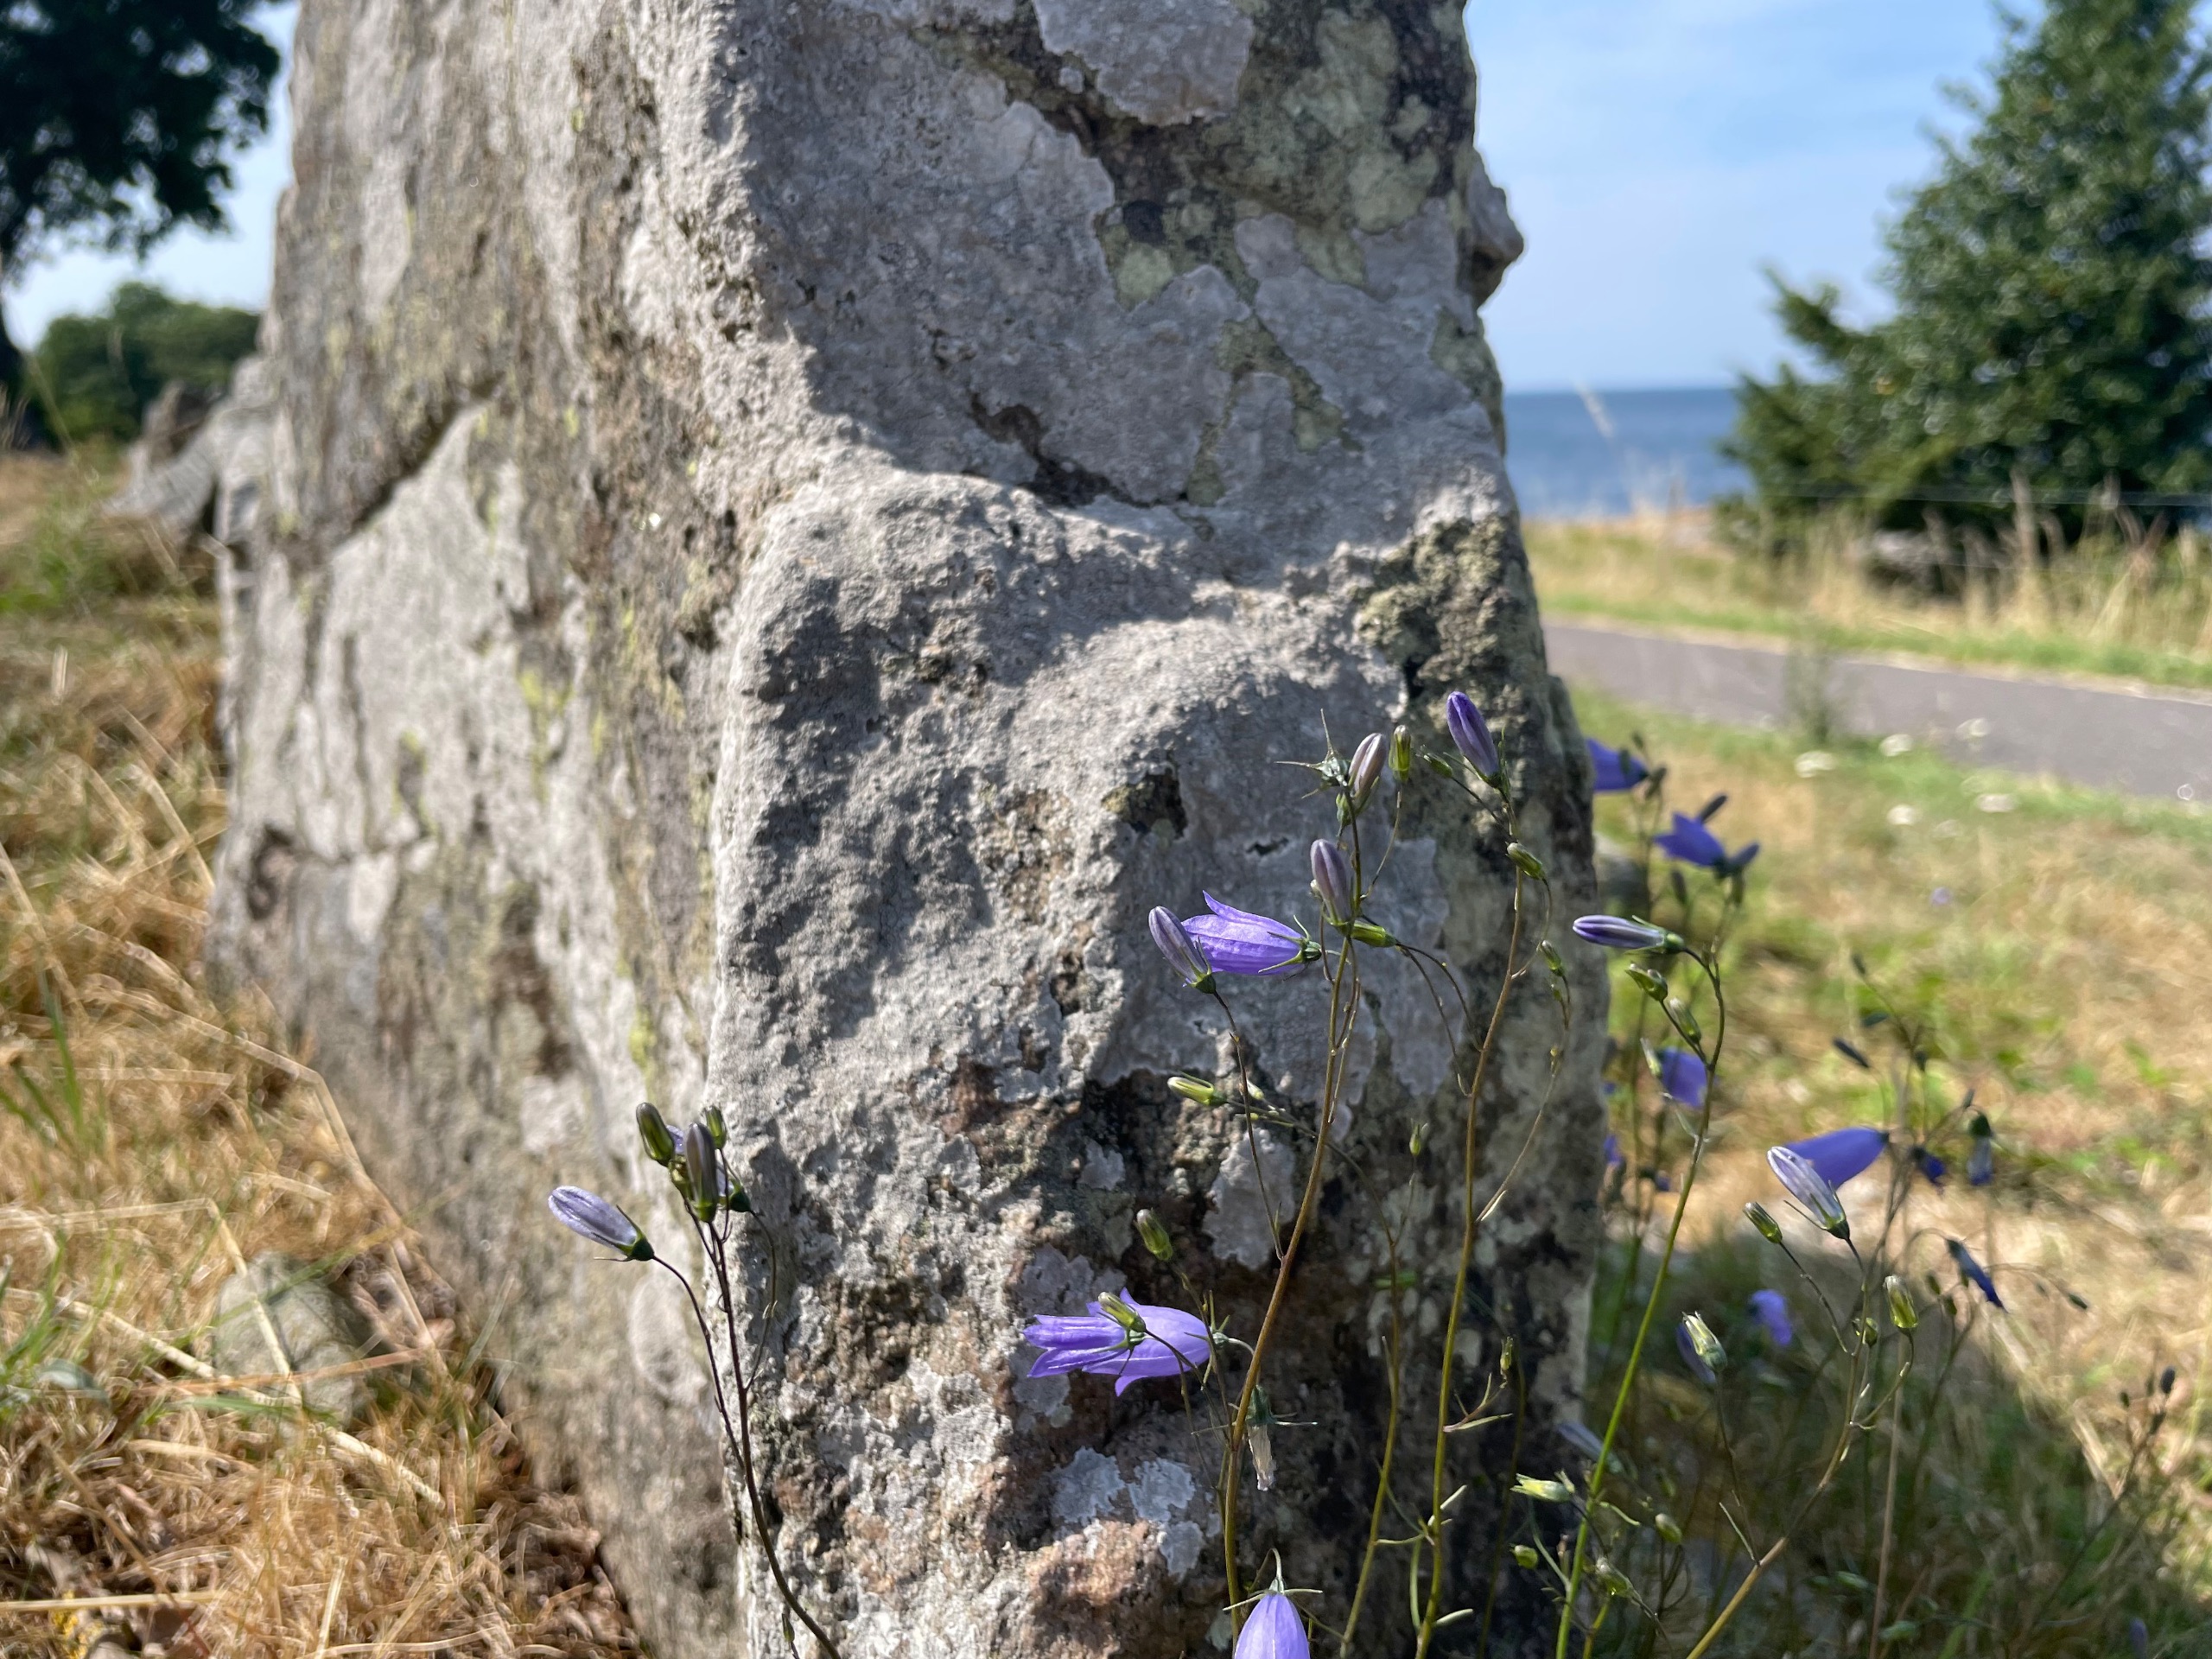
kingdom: Plantae
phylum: Tracheophyta
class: Magnoliopsida
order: Asterales
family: Campanulaceae
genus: Campanula
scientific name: Campanula rotundifolia
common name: Liden klokke
